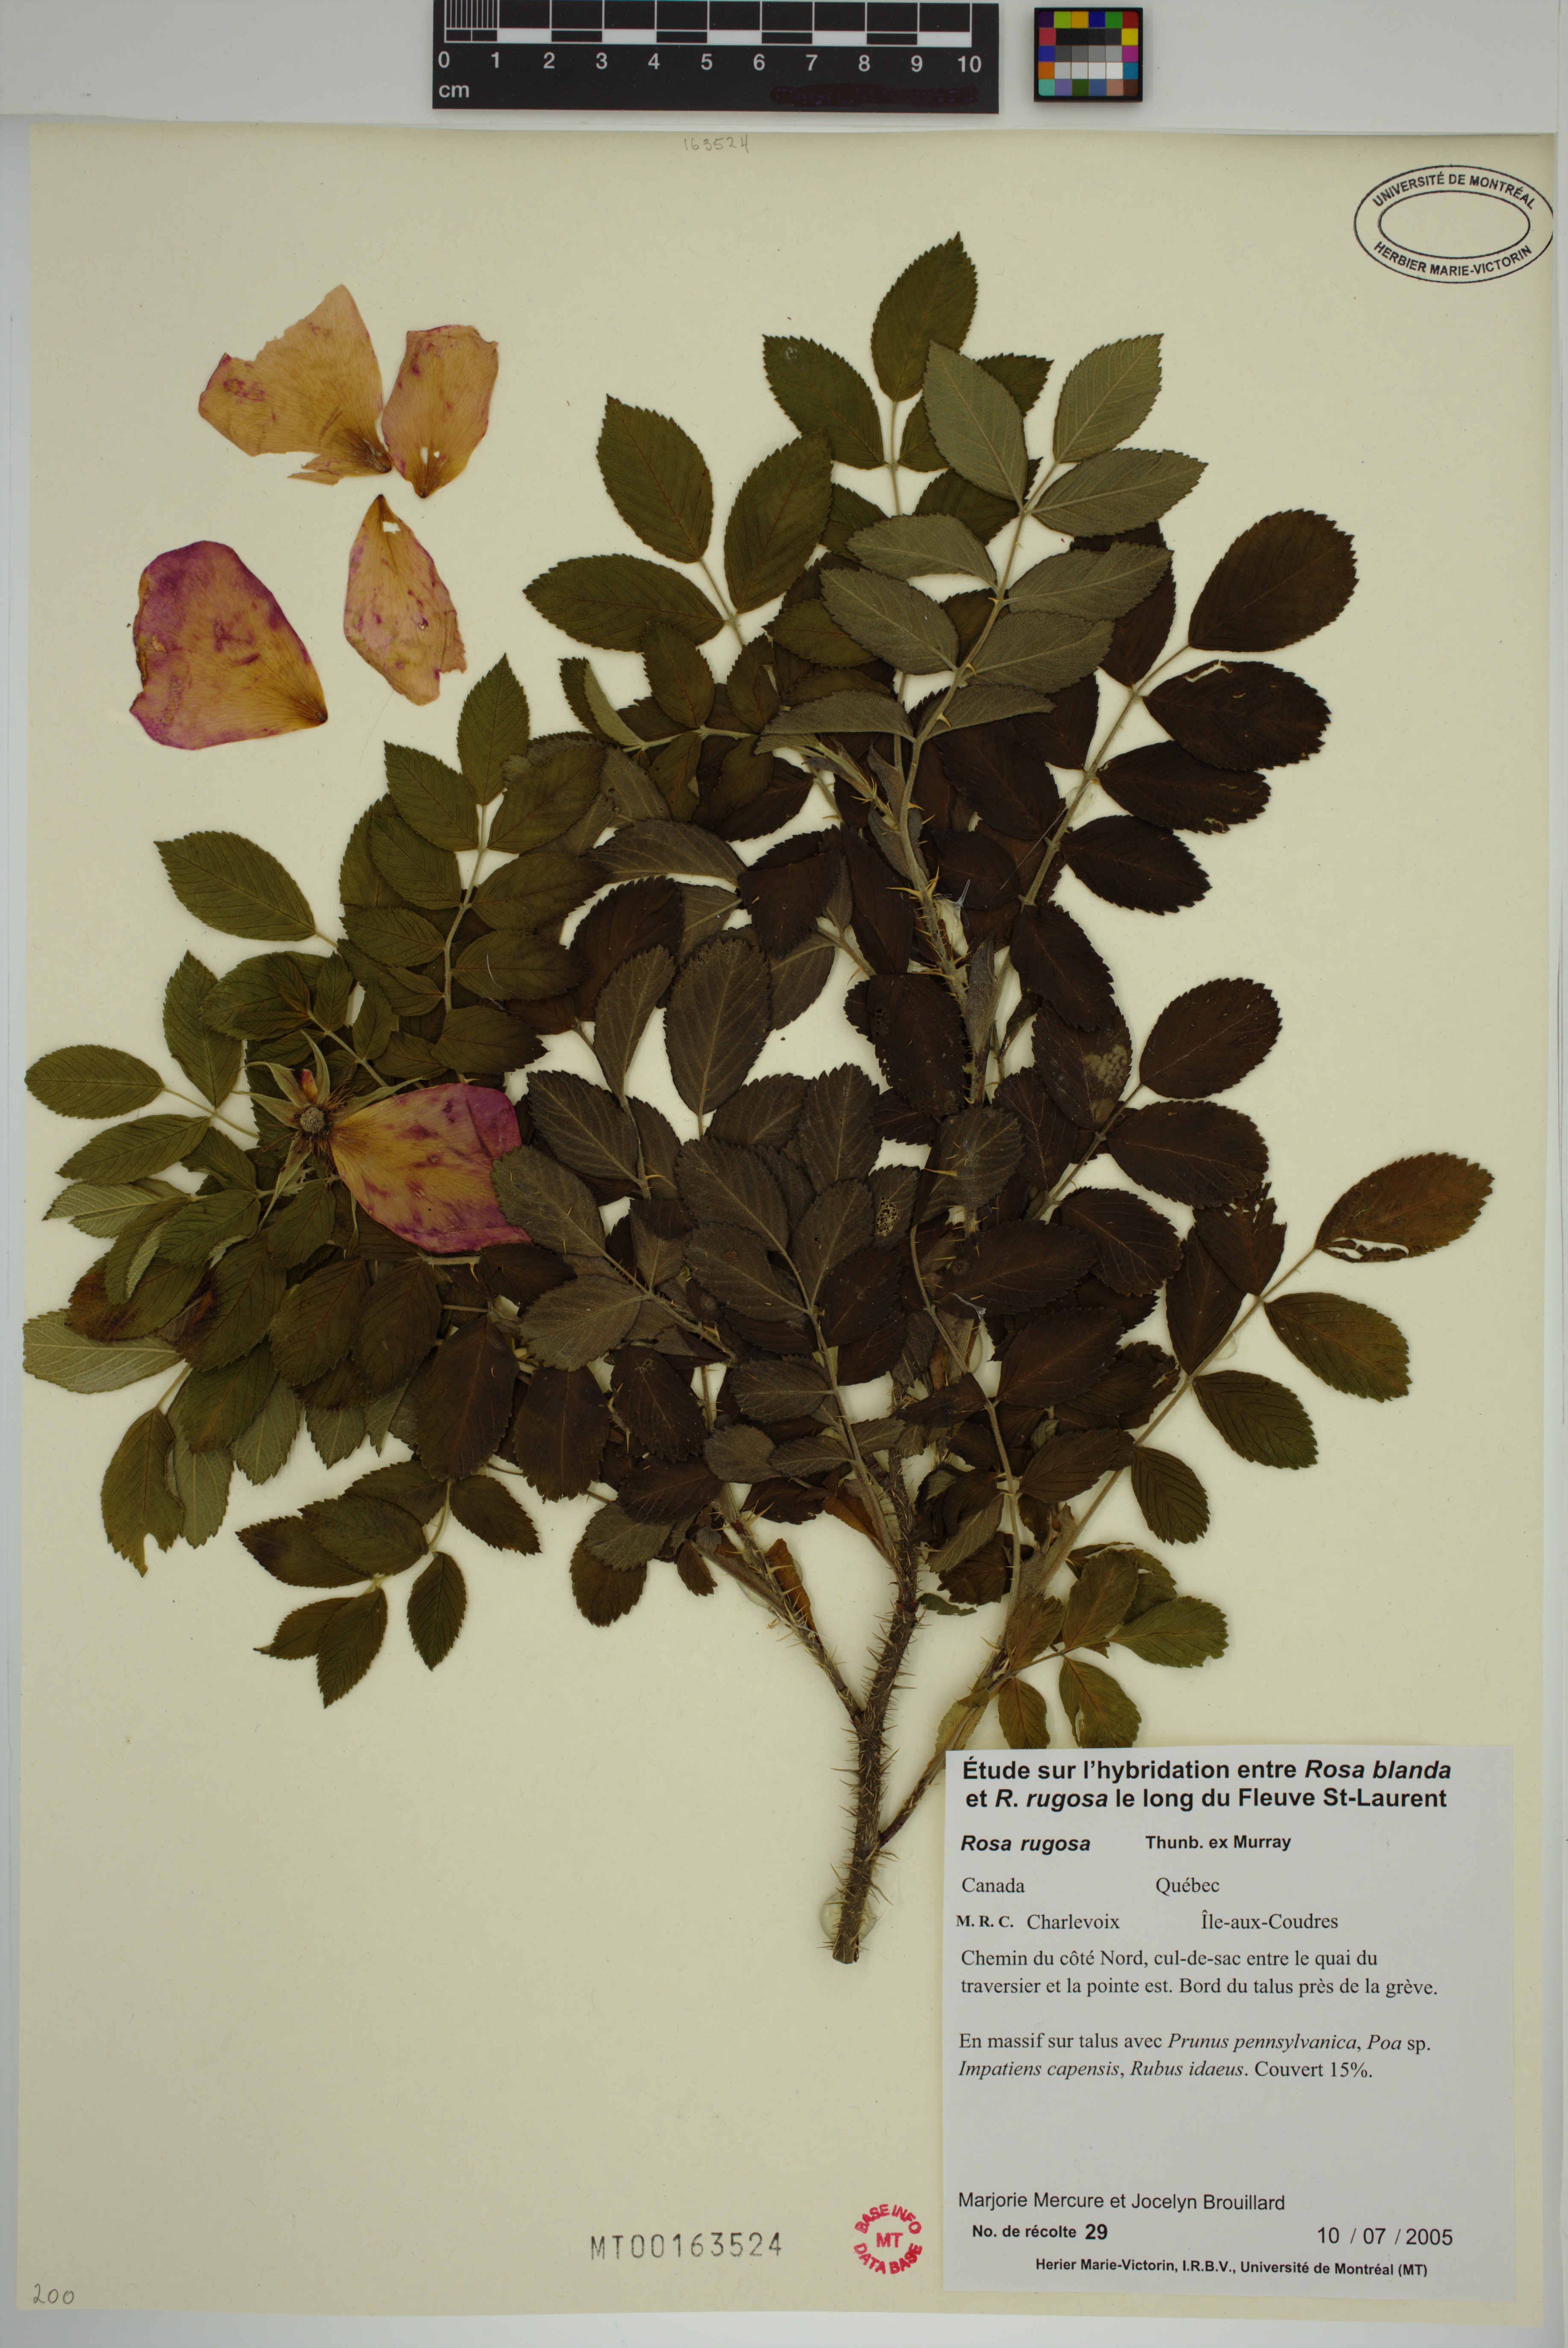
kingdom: Plantae
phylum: Tracheophyta
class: Magnoliopsida
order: Rosales
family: Rosaceae
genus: Rosa
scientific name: Rosa rugosa
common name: Japanese rose
